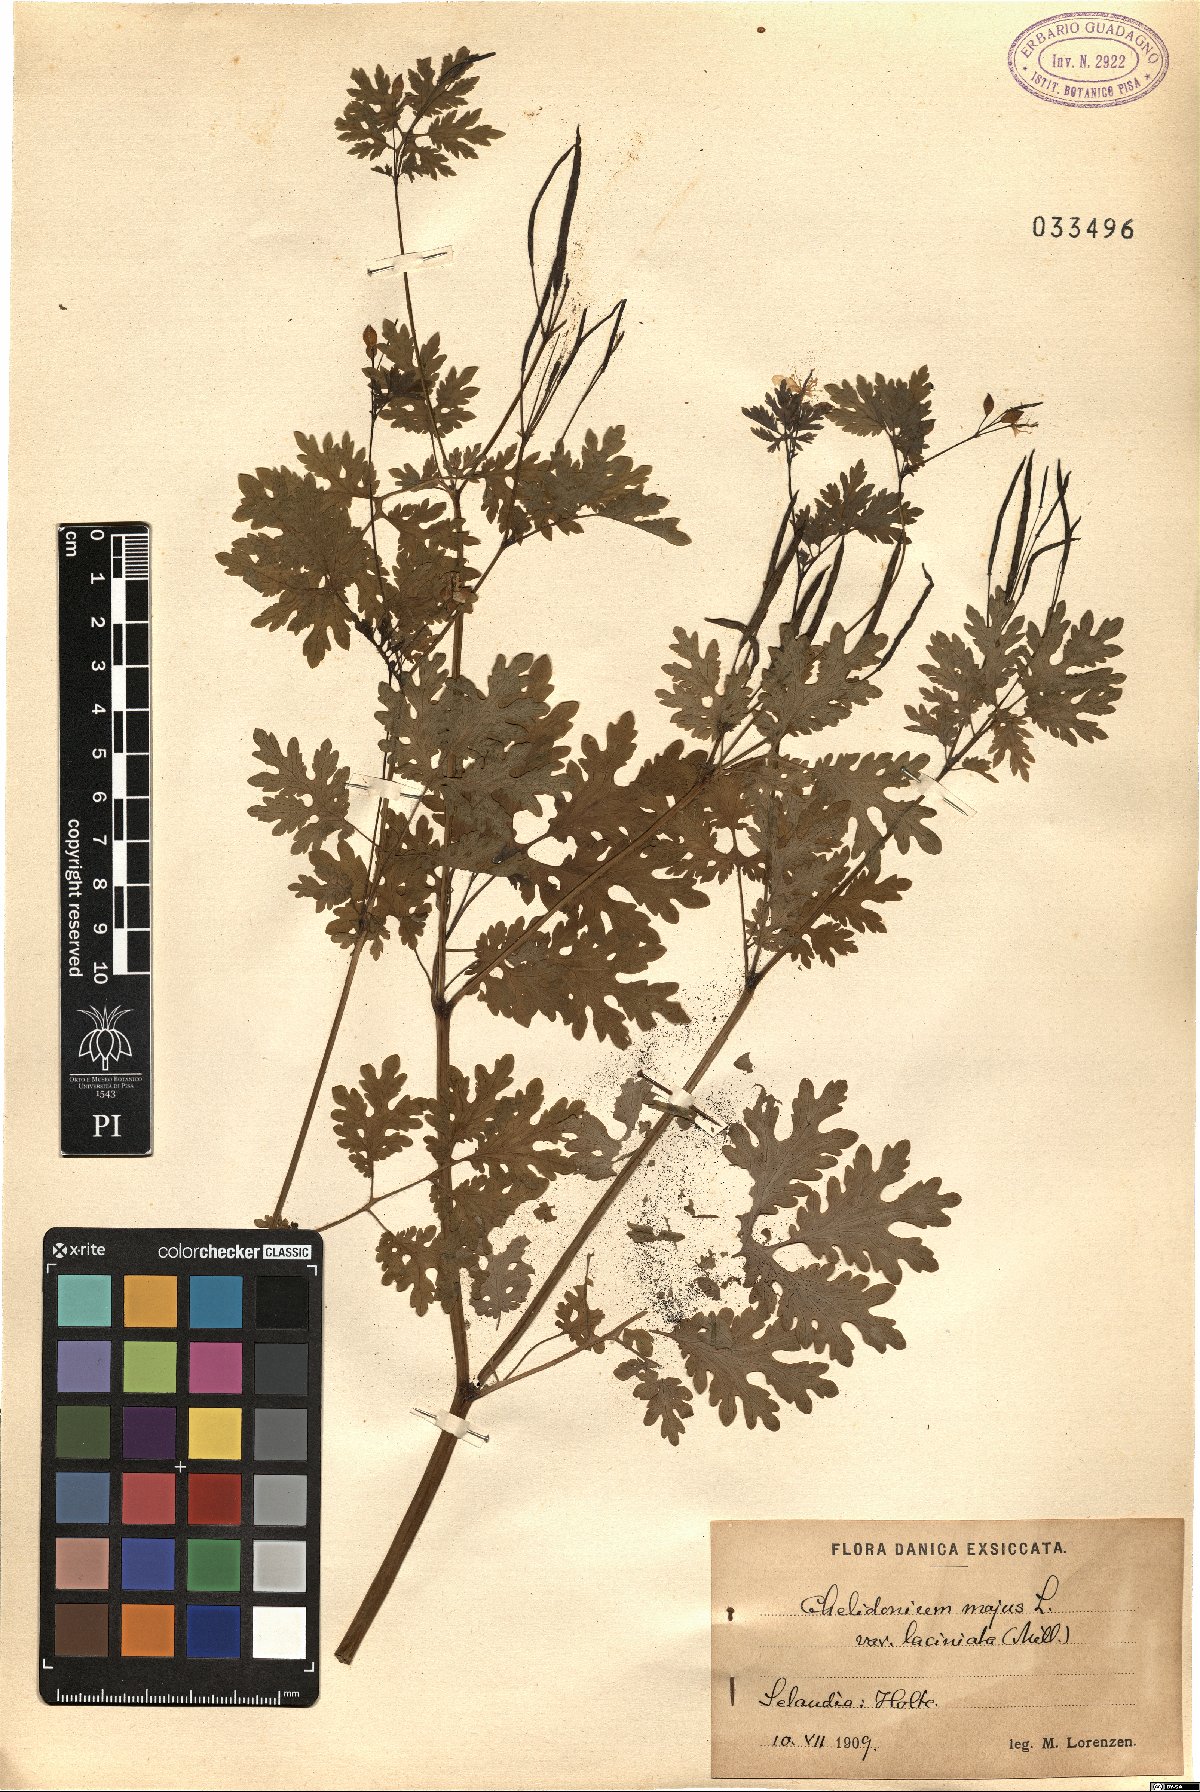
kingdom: Plantae
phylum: Tracheophyta
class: Magnoliopsida
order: Ranunculales
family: Papaveraceae
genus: Chelidonium
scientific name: Chelidonium majus
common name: Greater celandine
